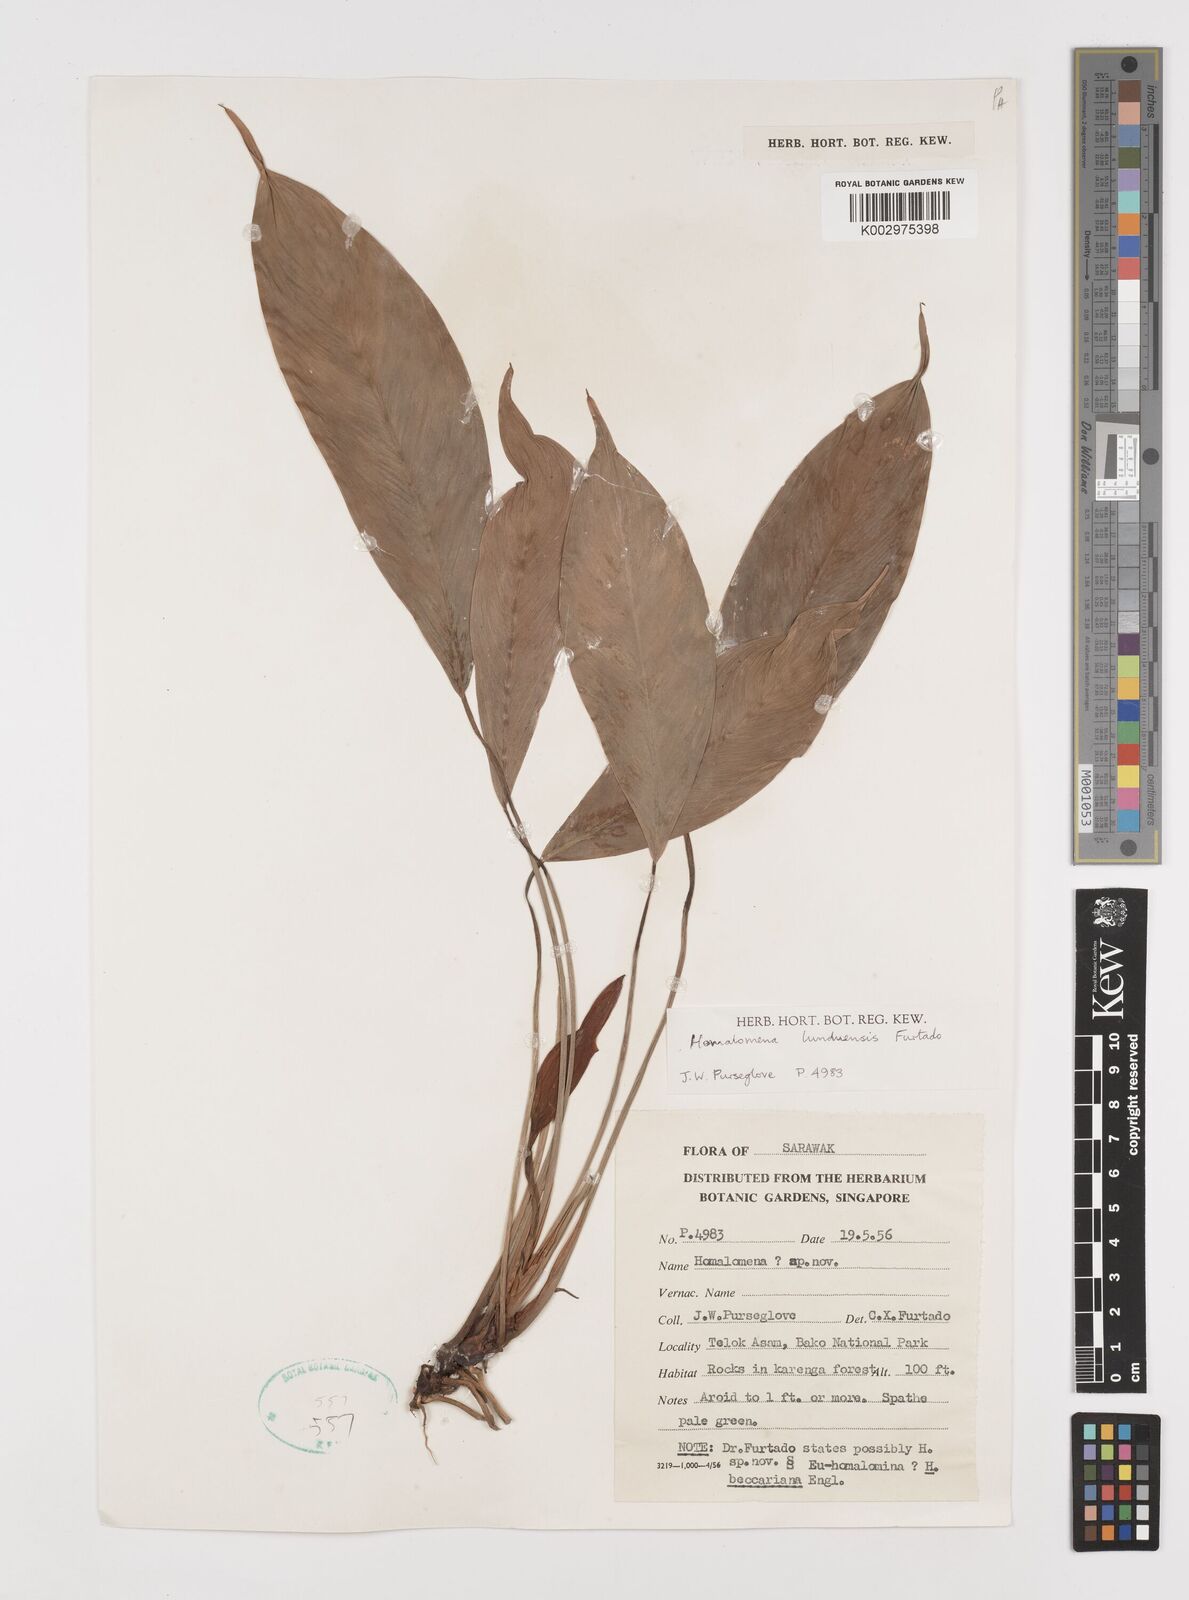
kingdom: Plantae
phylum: Tracheophyta
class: Liliopsida
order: Alismatales
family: Araceae
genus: Homalomena
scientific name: Homalomena havilandii
